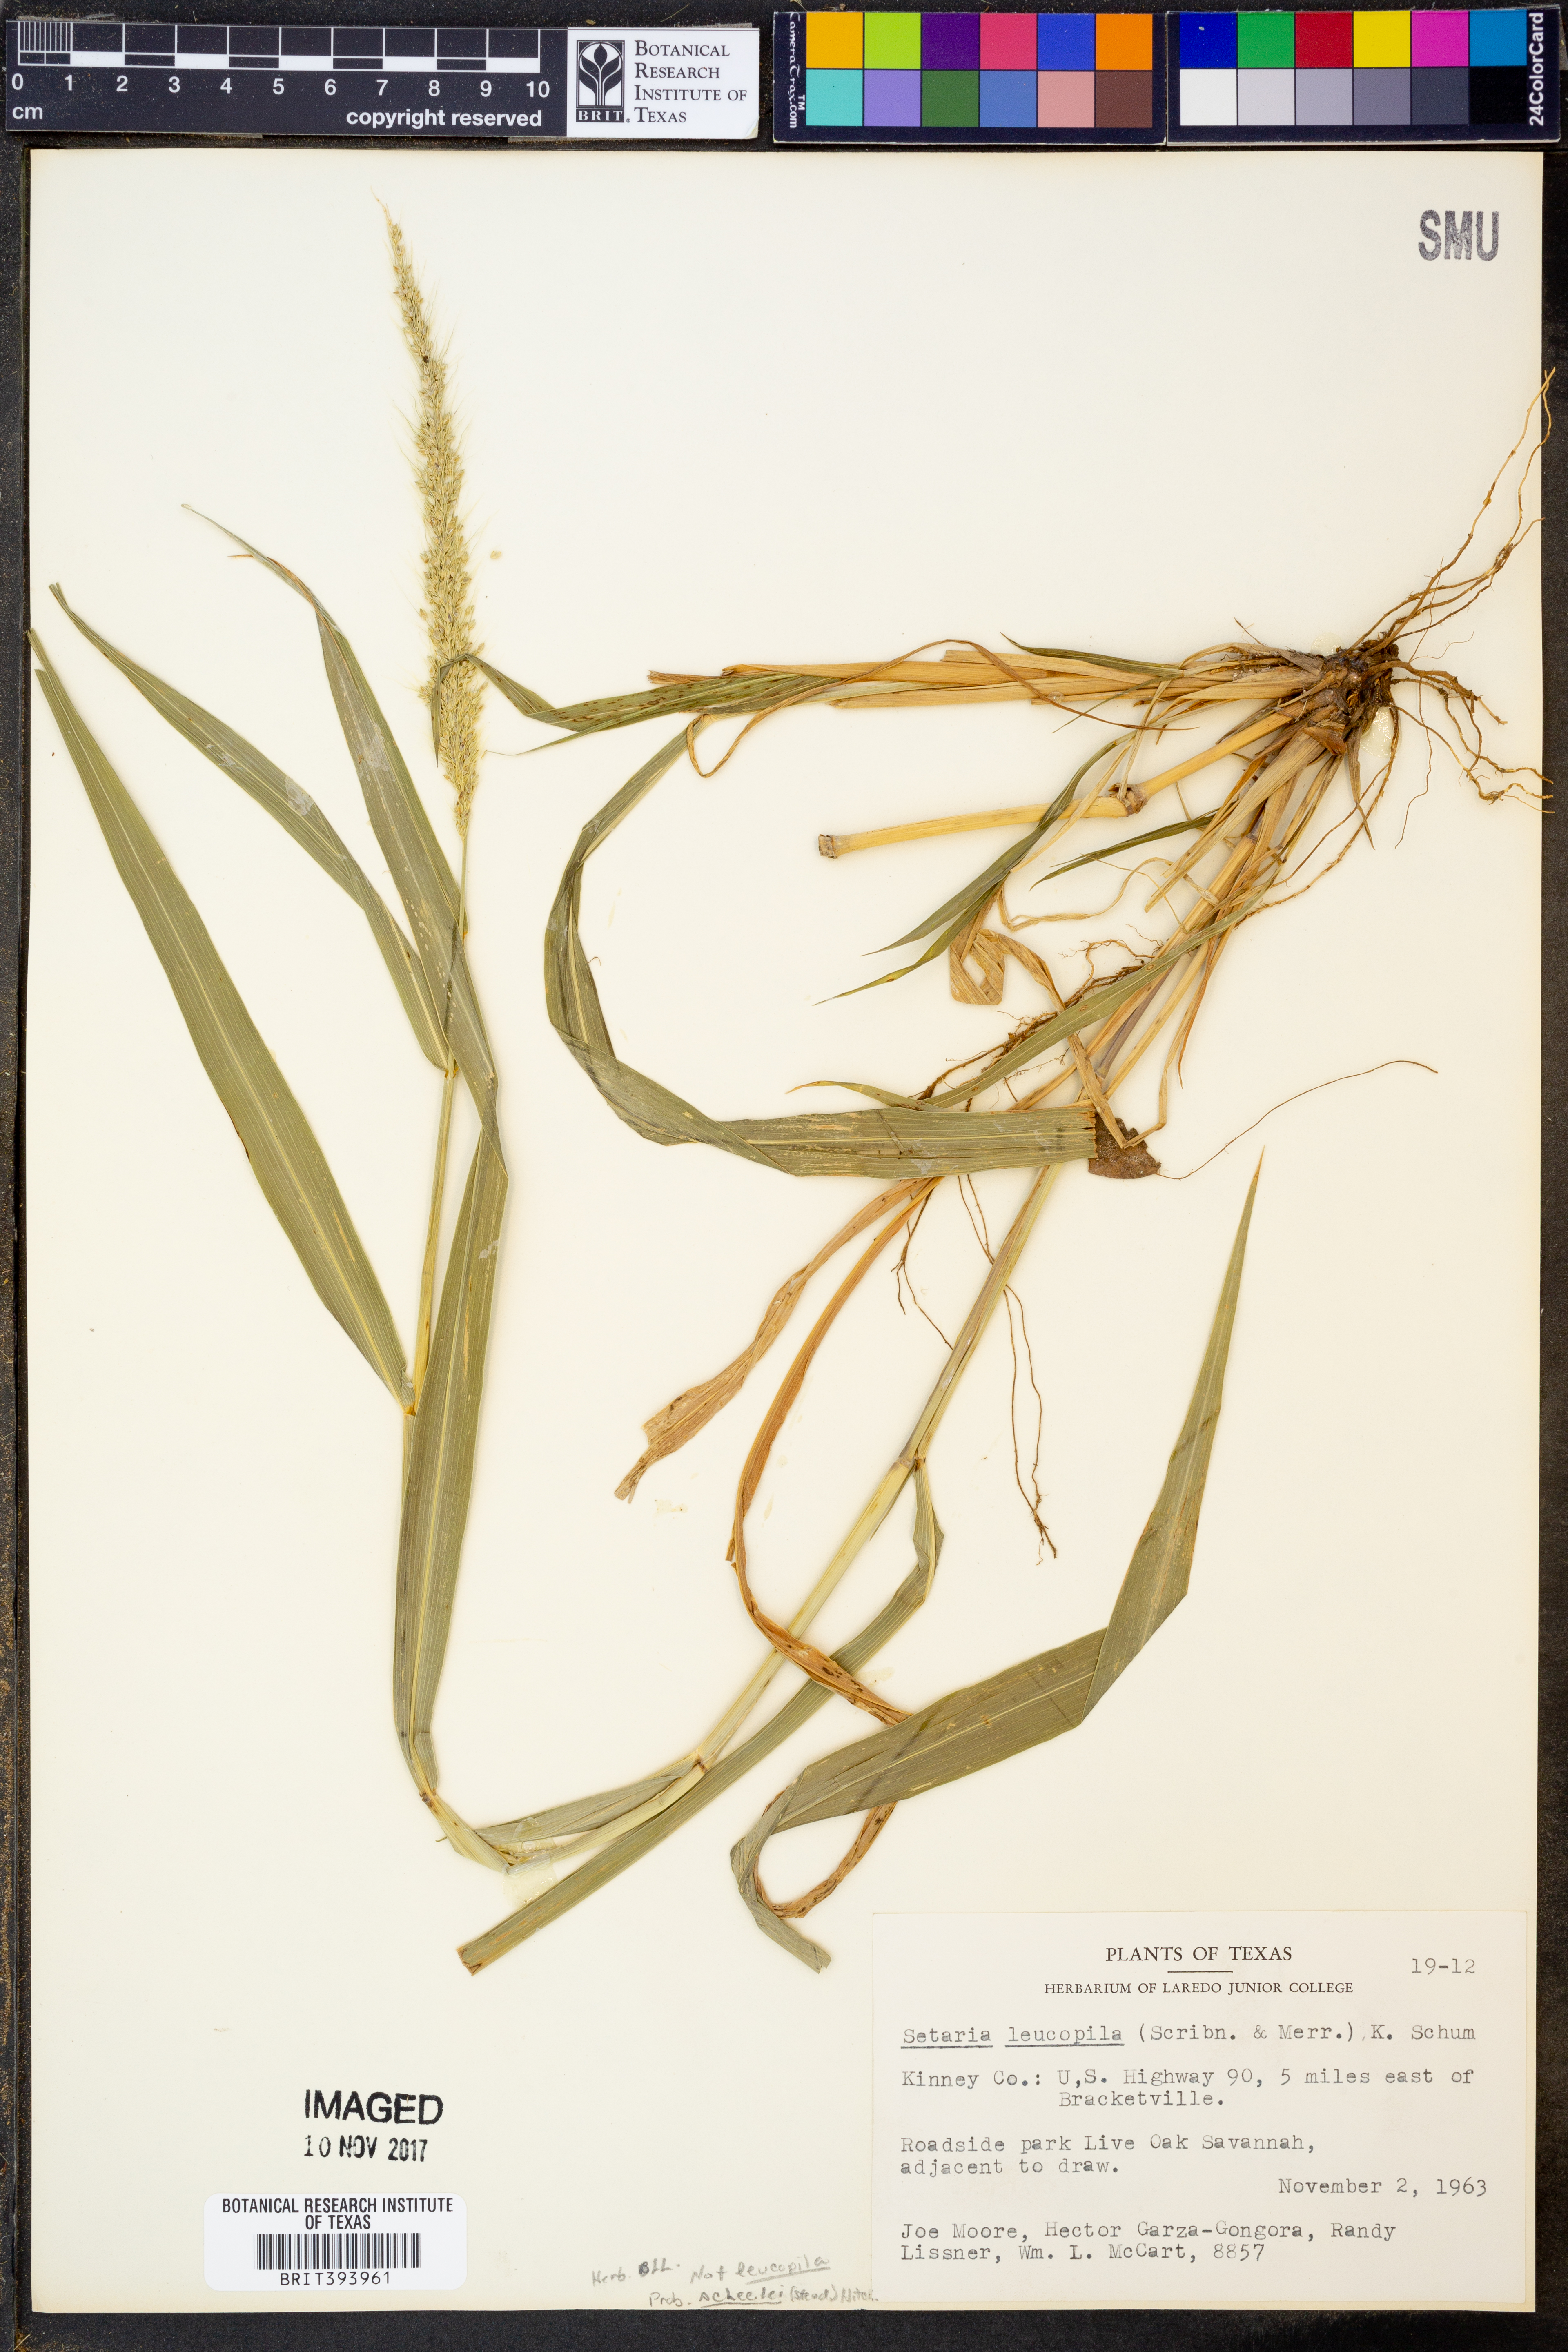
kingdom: Plantae
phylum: Tracheophyta
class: Liliopsida
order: Poales
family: Poaceae
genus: Setaria
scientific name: Setaria leucopila
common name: Plains bristle grass
